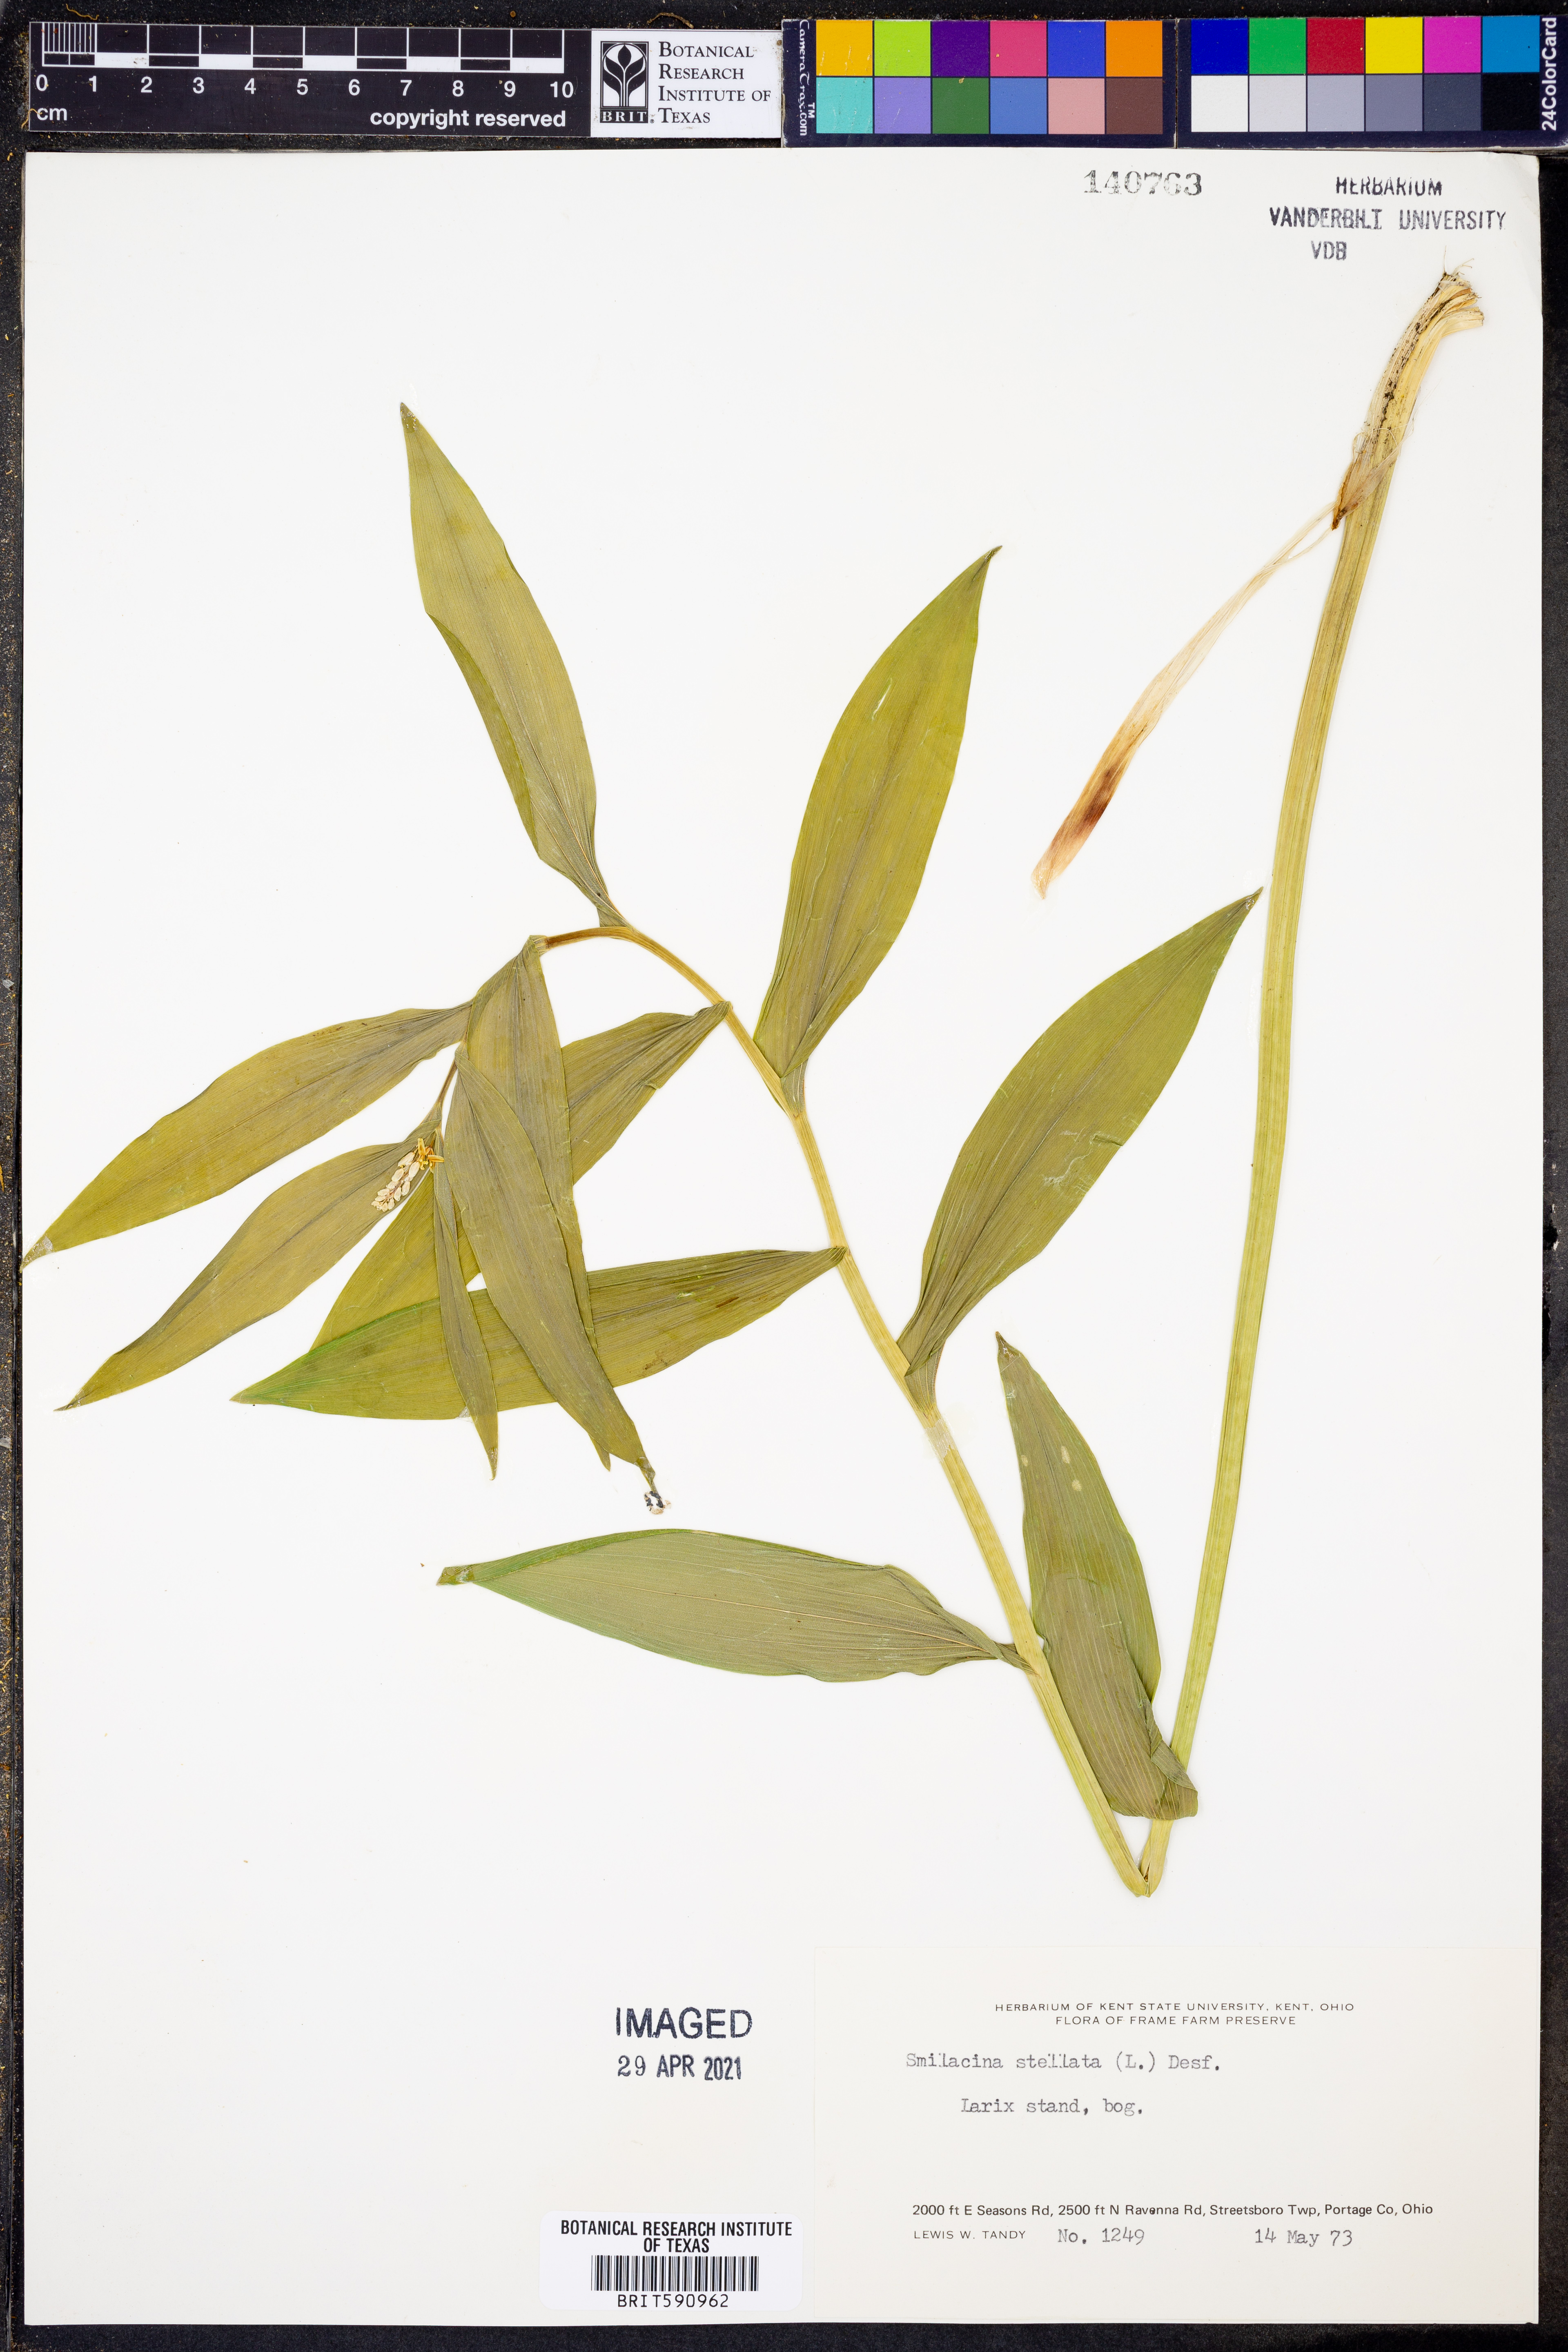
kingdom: Plantae
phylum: Tracheophyta
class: Liliopsida
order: Asparagales
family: Asparagaceae
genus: Maianthemum
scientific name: Maianthemum stellatum
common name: Little false solomon's seal
